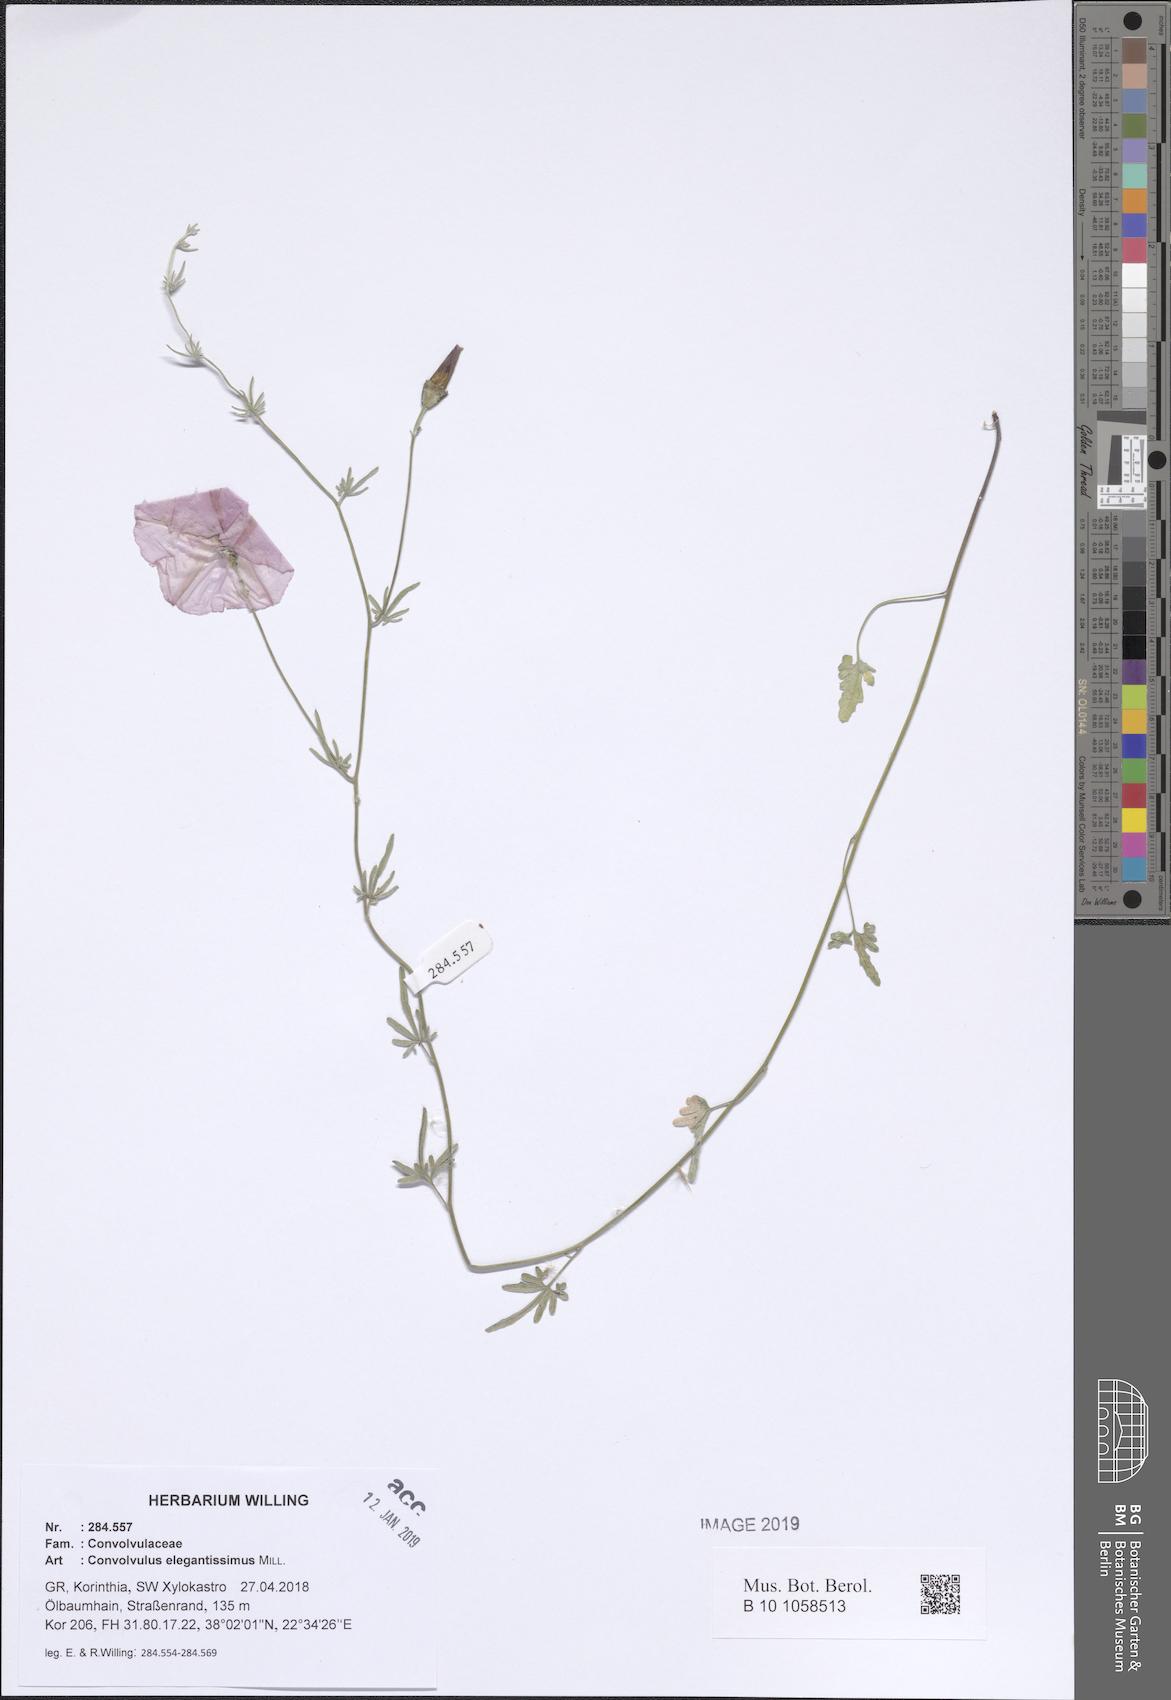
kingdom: Plantae
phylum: Tracheophyta
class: Magnoliopsida
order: Solanales
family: Convolvulaceae
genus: Convolvulus
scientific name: Convolvulus elegantissimus
